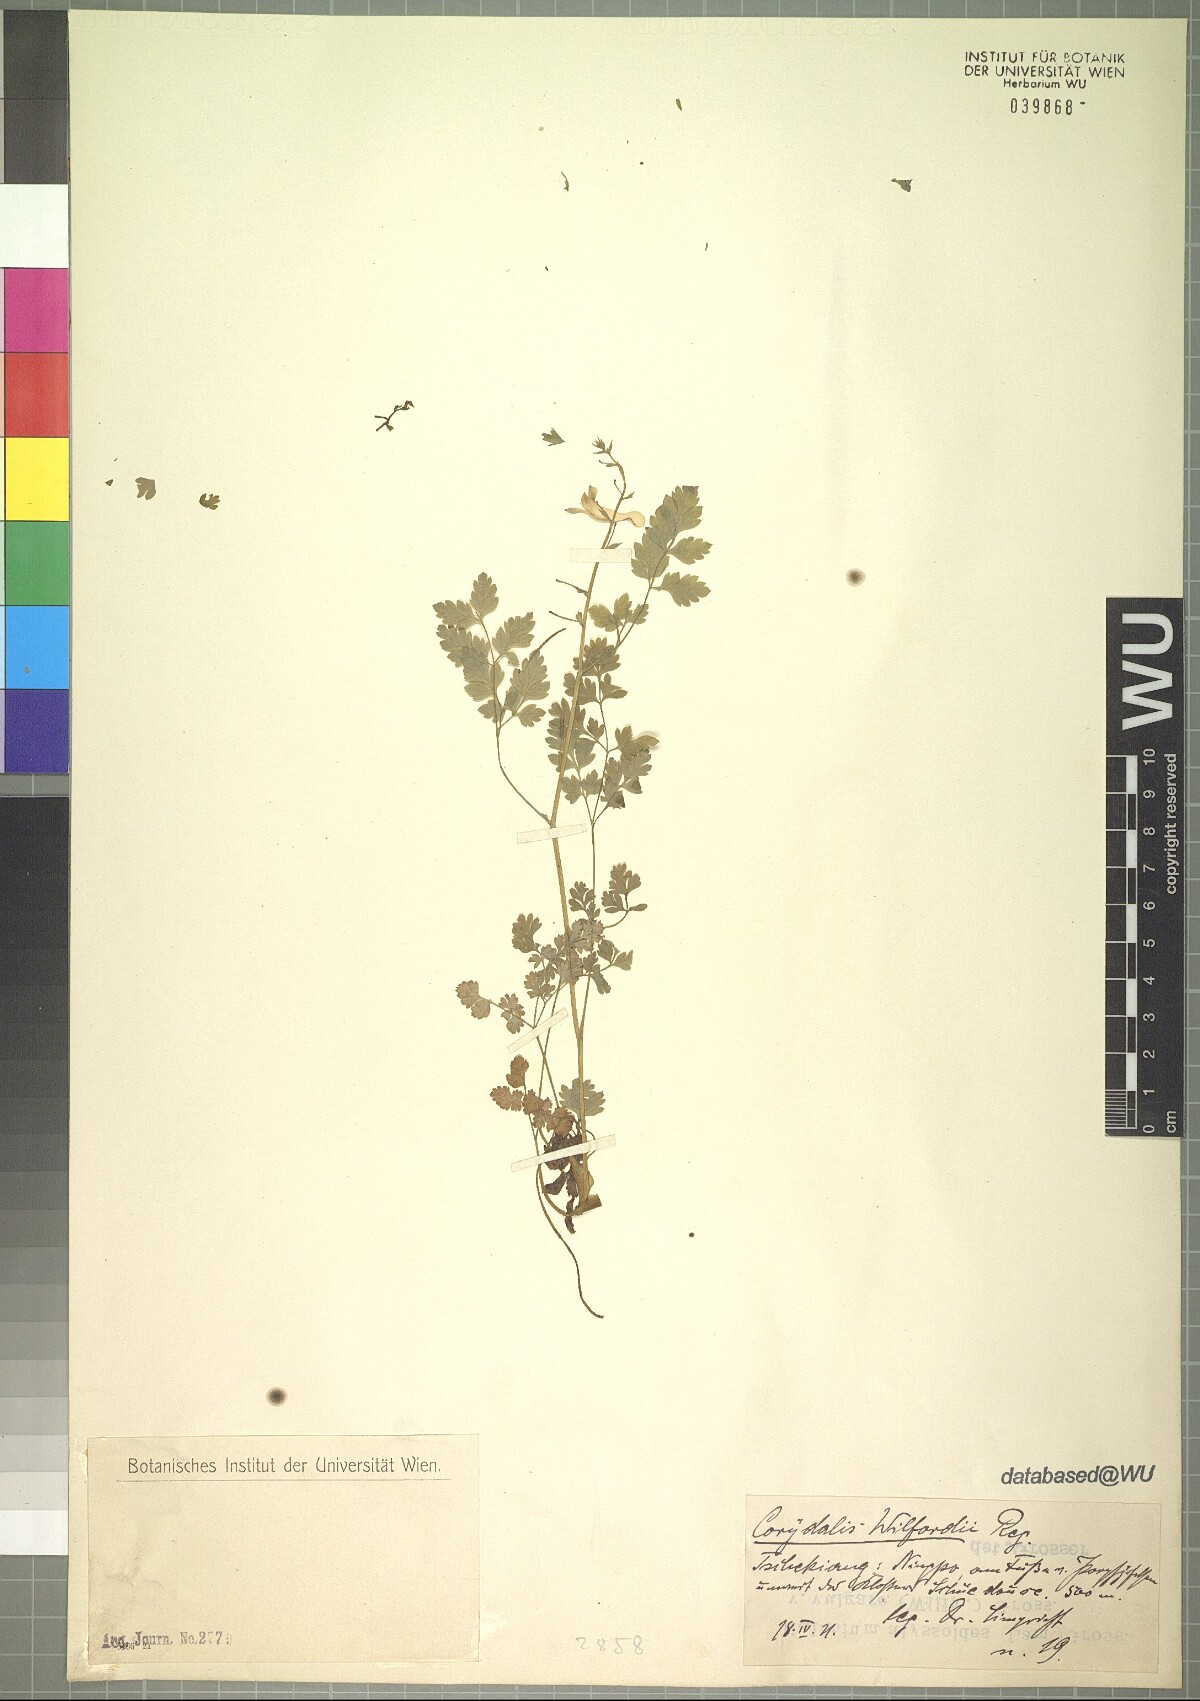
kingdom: Plantae
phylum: Tracheophyta
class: Magnoliopsida
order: Ranunculales
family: Papaveraceae
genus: Corydalis
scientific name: Corydalis wilfordii
